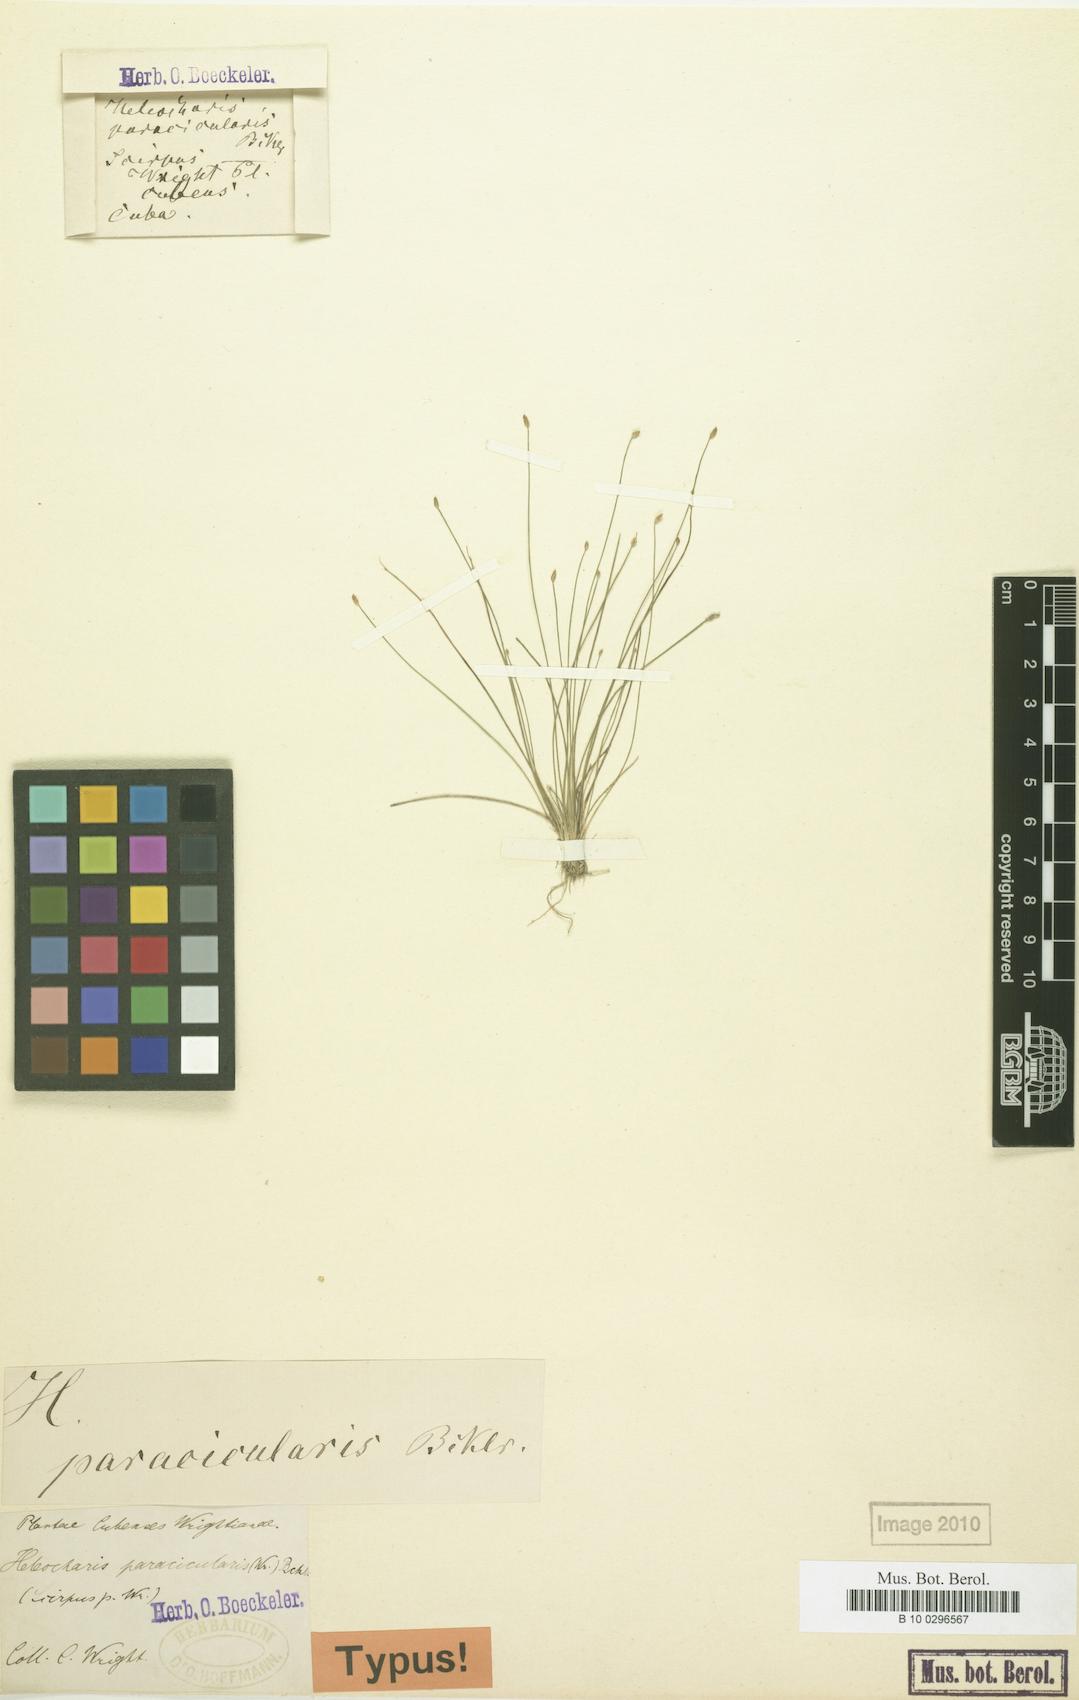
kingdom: Plantae
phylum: Tracheophyta
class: Liliopsida
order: Poales
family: Cyperaceae
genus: Eleocharis
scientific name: Eleocharis nigrescens
